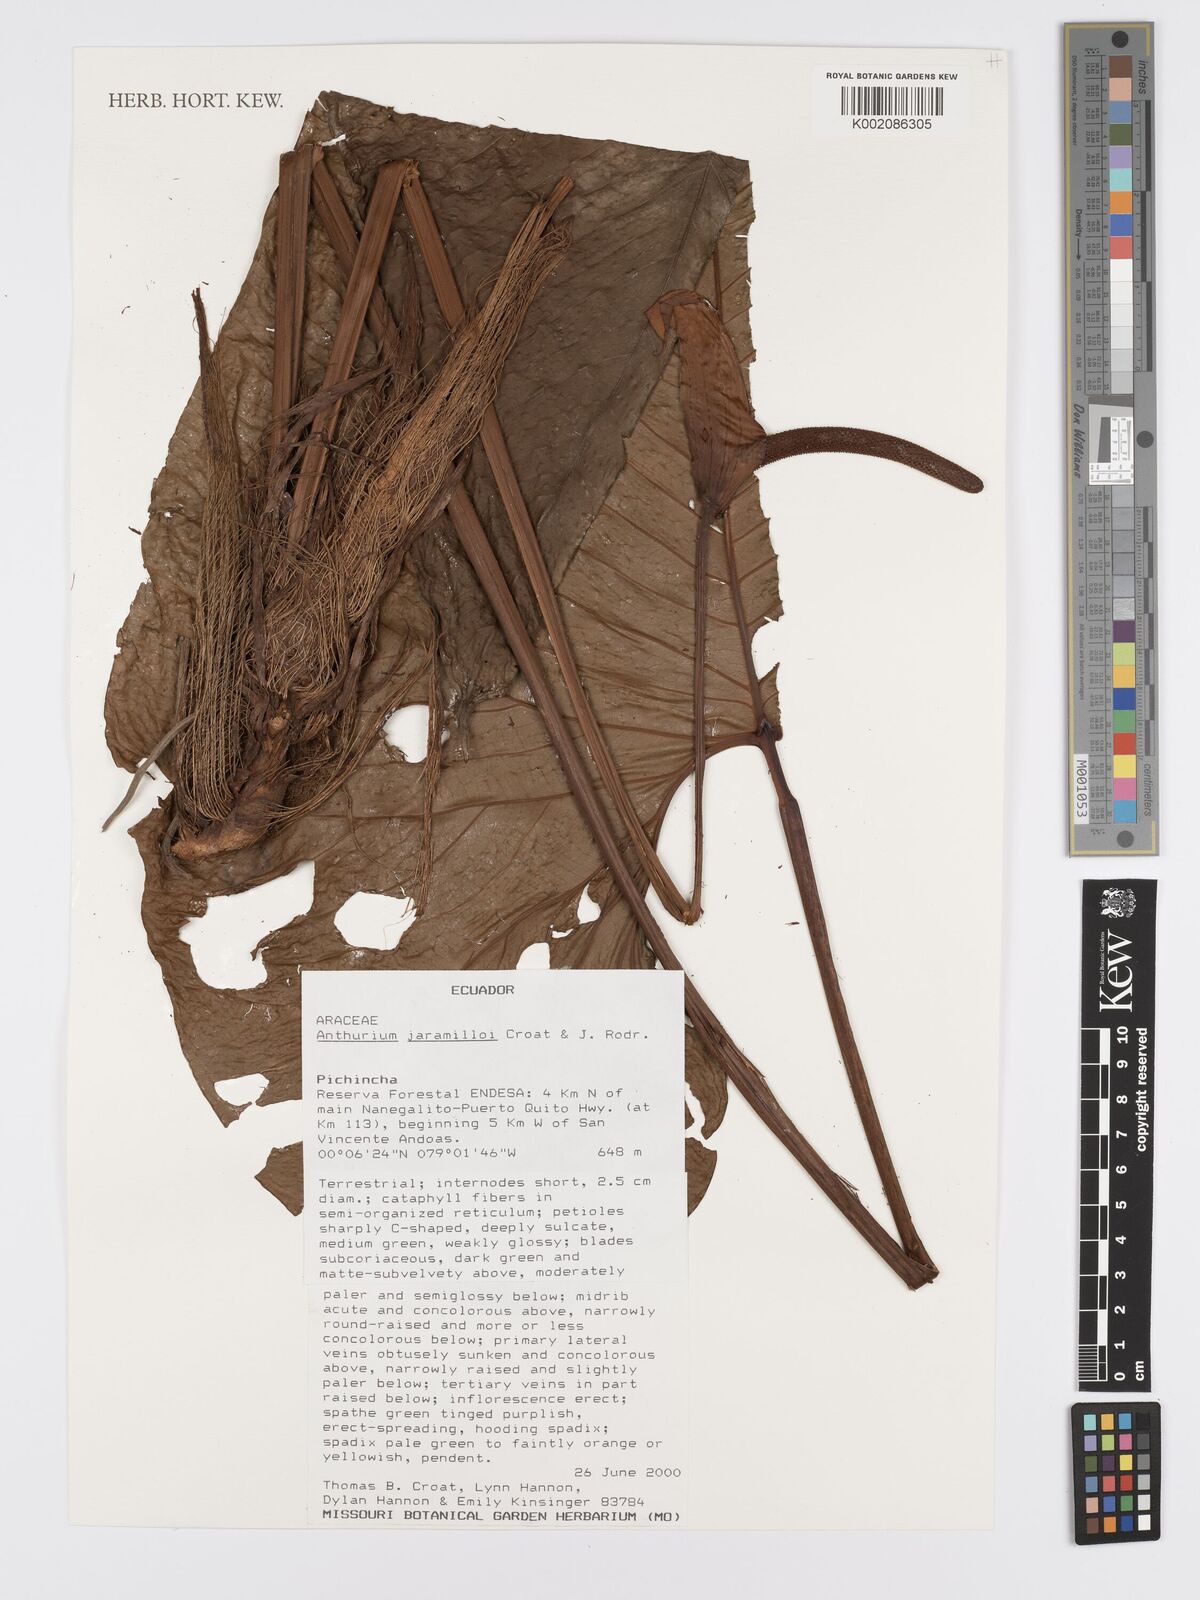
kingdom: Plantae
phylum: Tracheophyta
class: Liliopsida
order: Alismatales
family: Araceae
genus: Anthurium
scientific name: Anthurium jaramilloi
